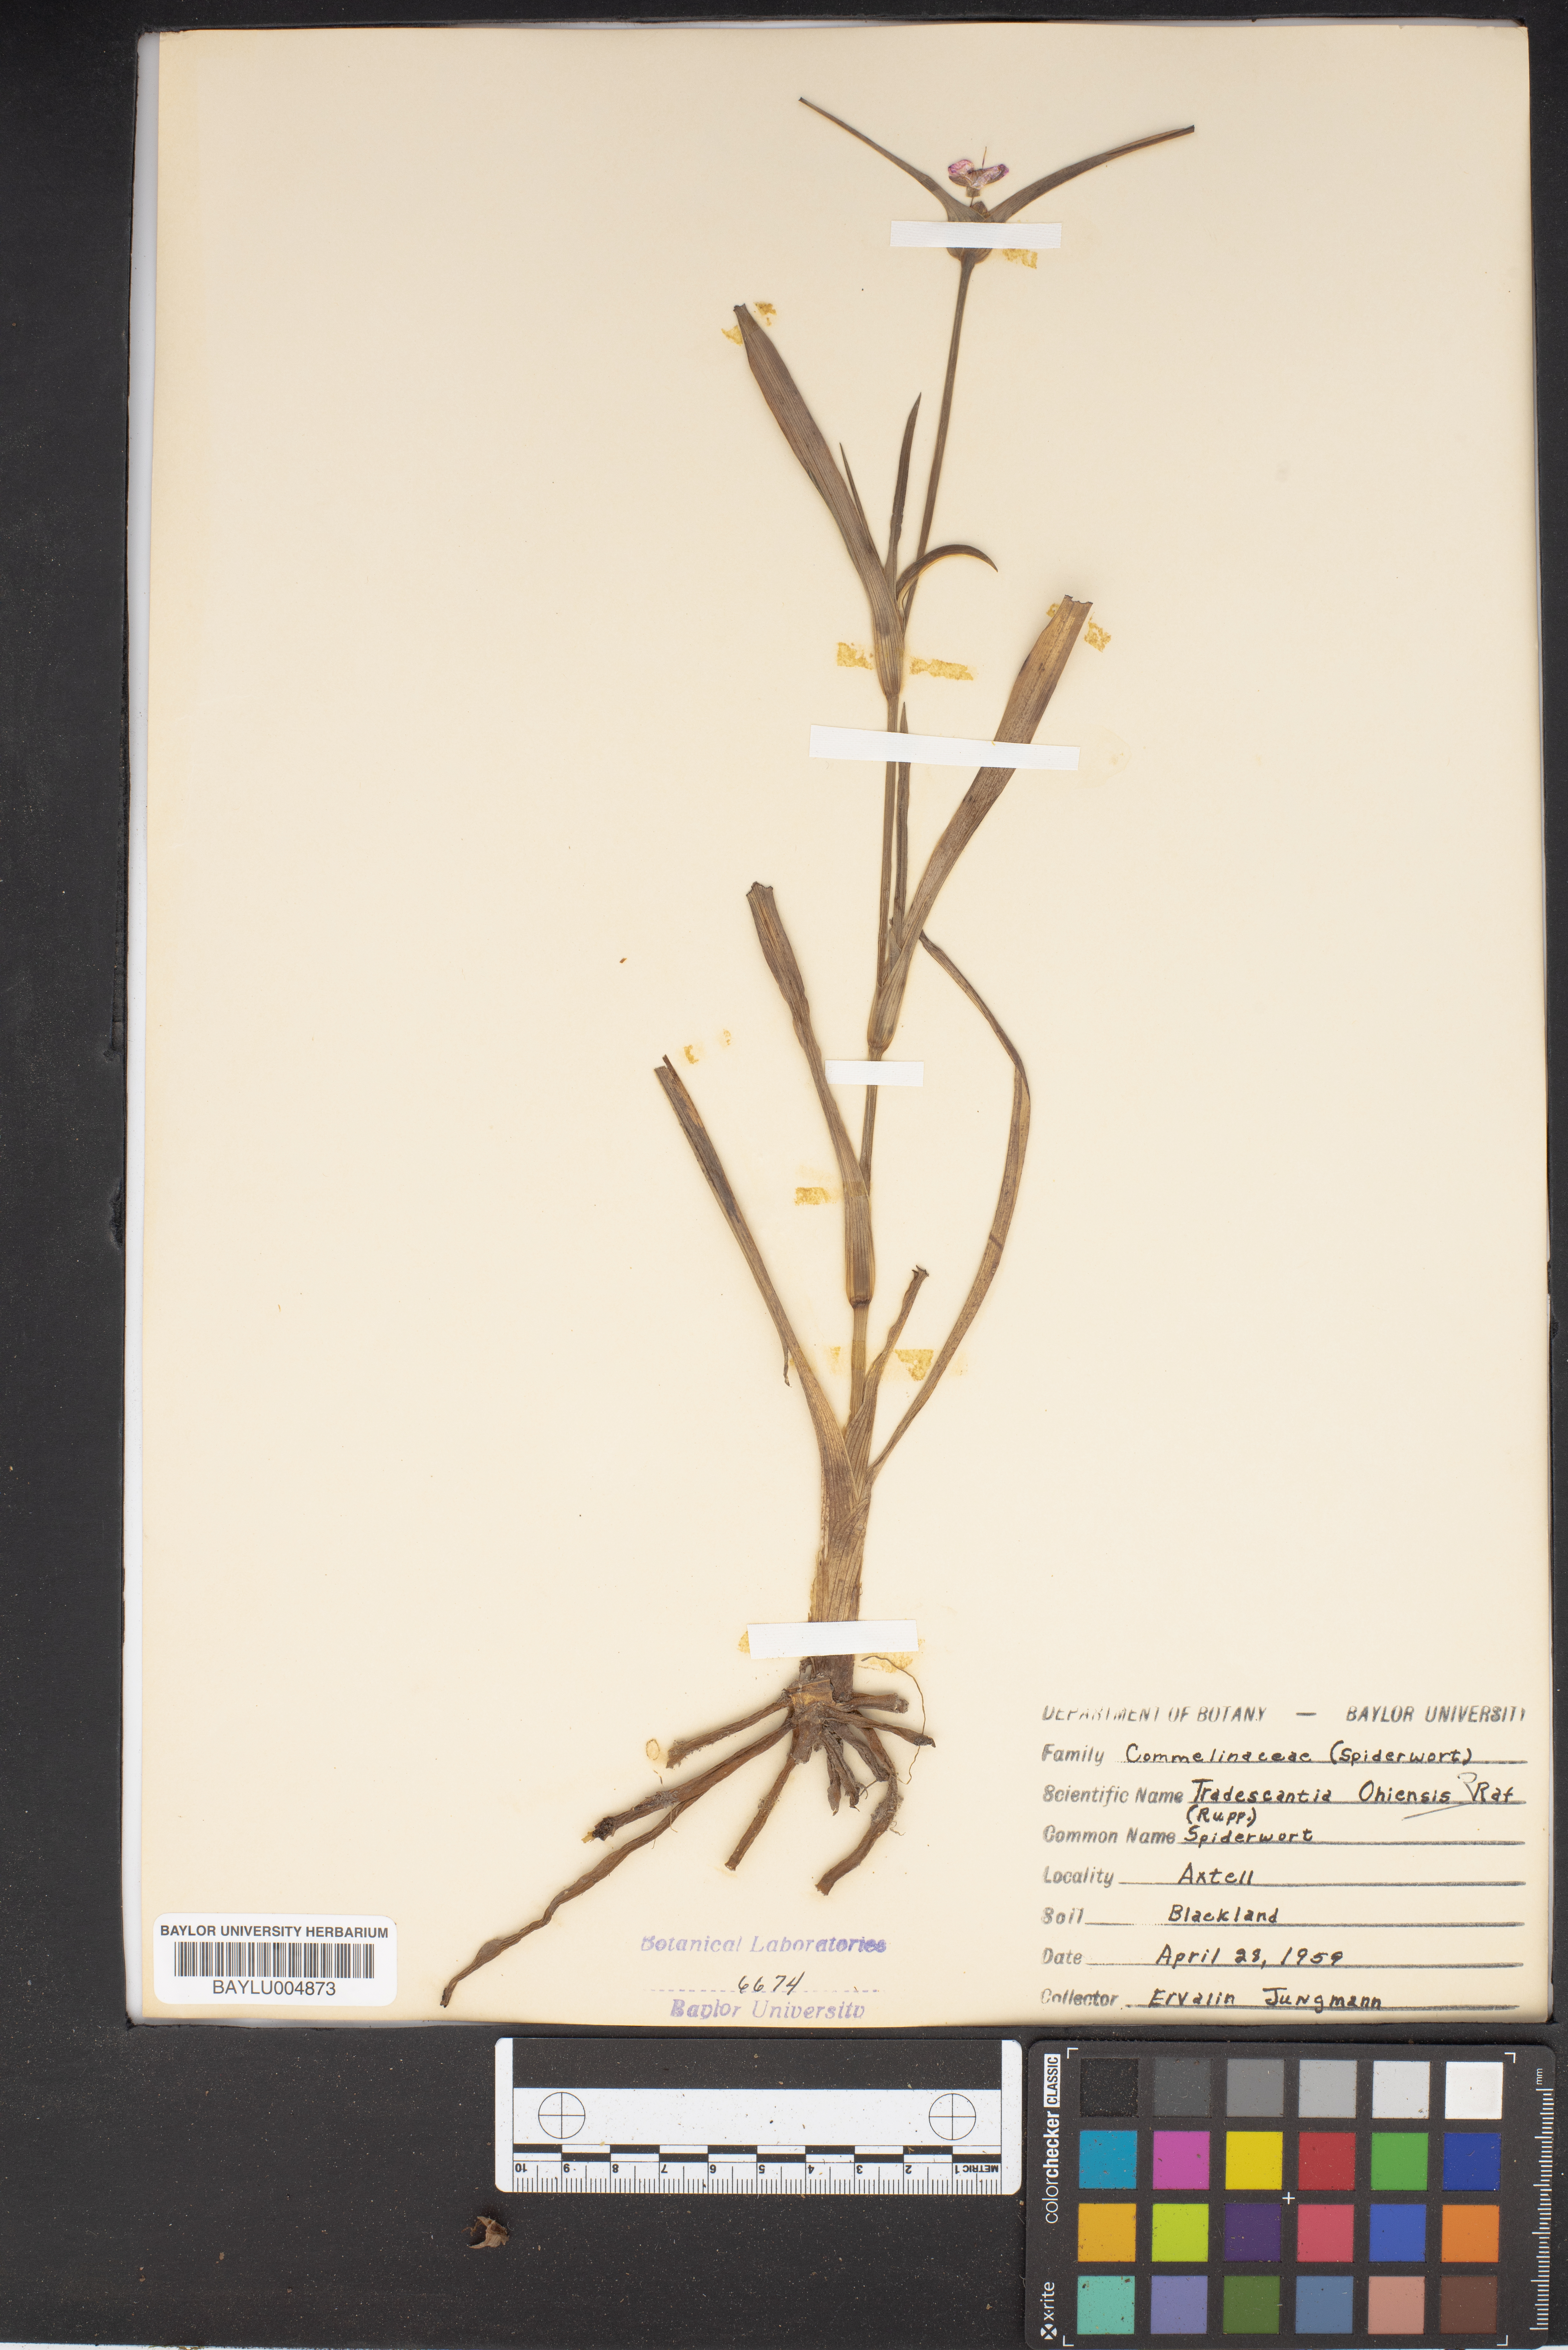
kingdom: Plantae
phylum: Tracheophyta
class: Liliopsida
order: Commelinales
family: Commelinaceae
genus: Tradescantia
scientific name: Tradescantia ohiensis
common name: Ohio spiderwort
